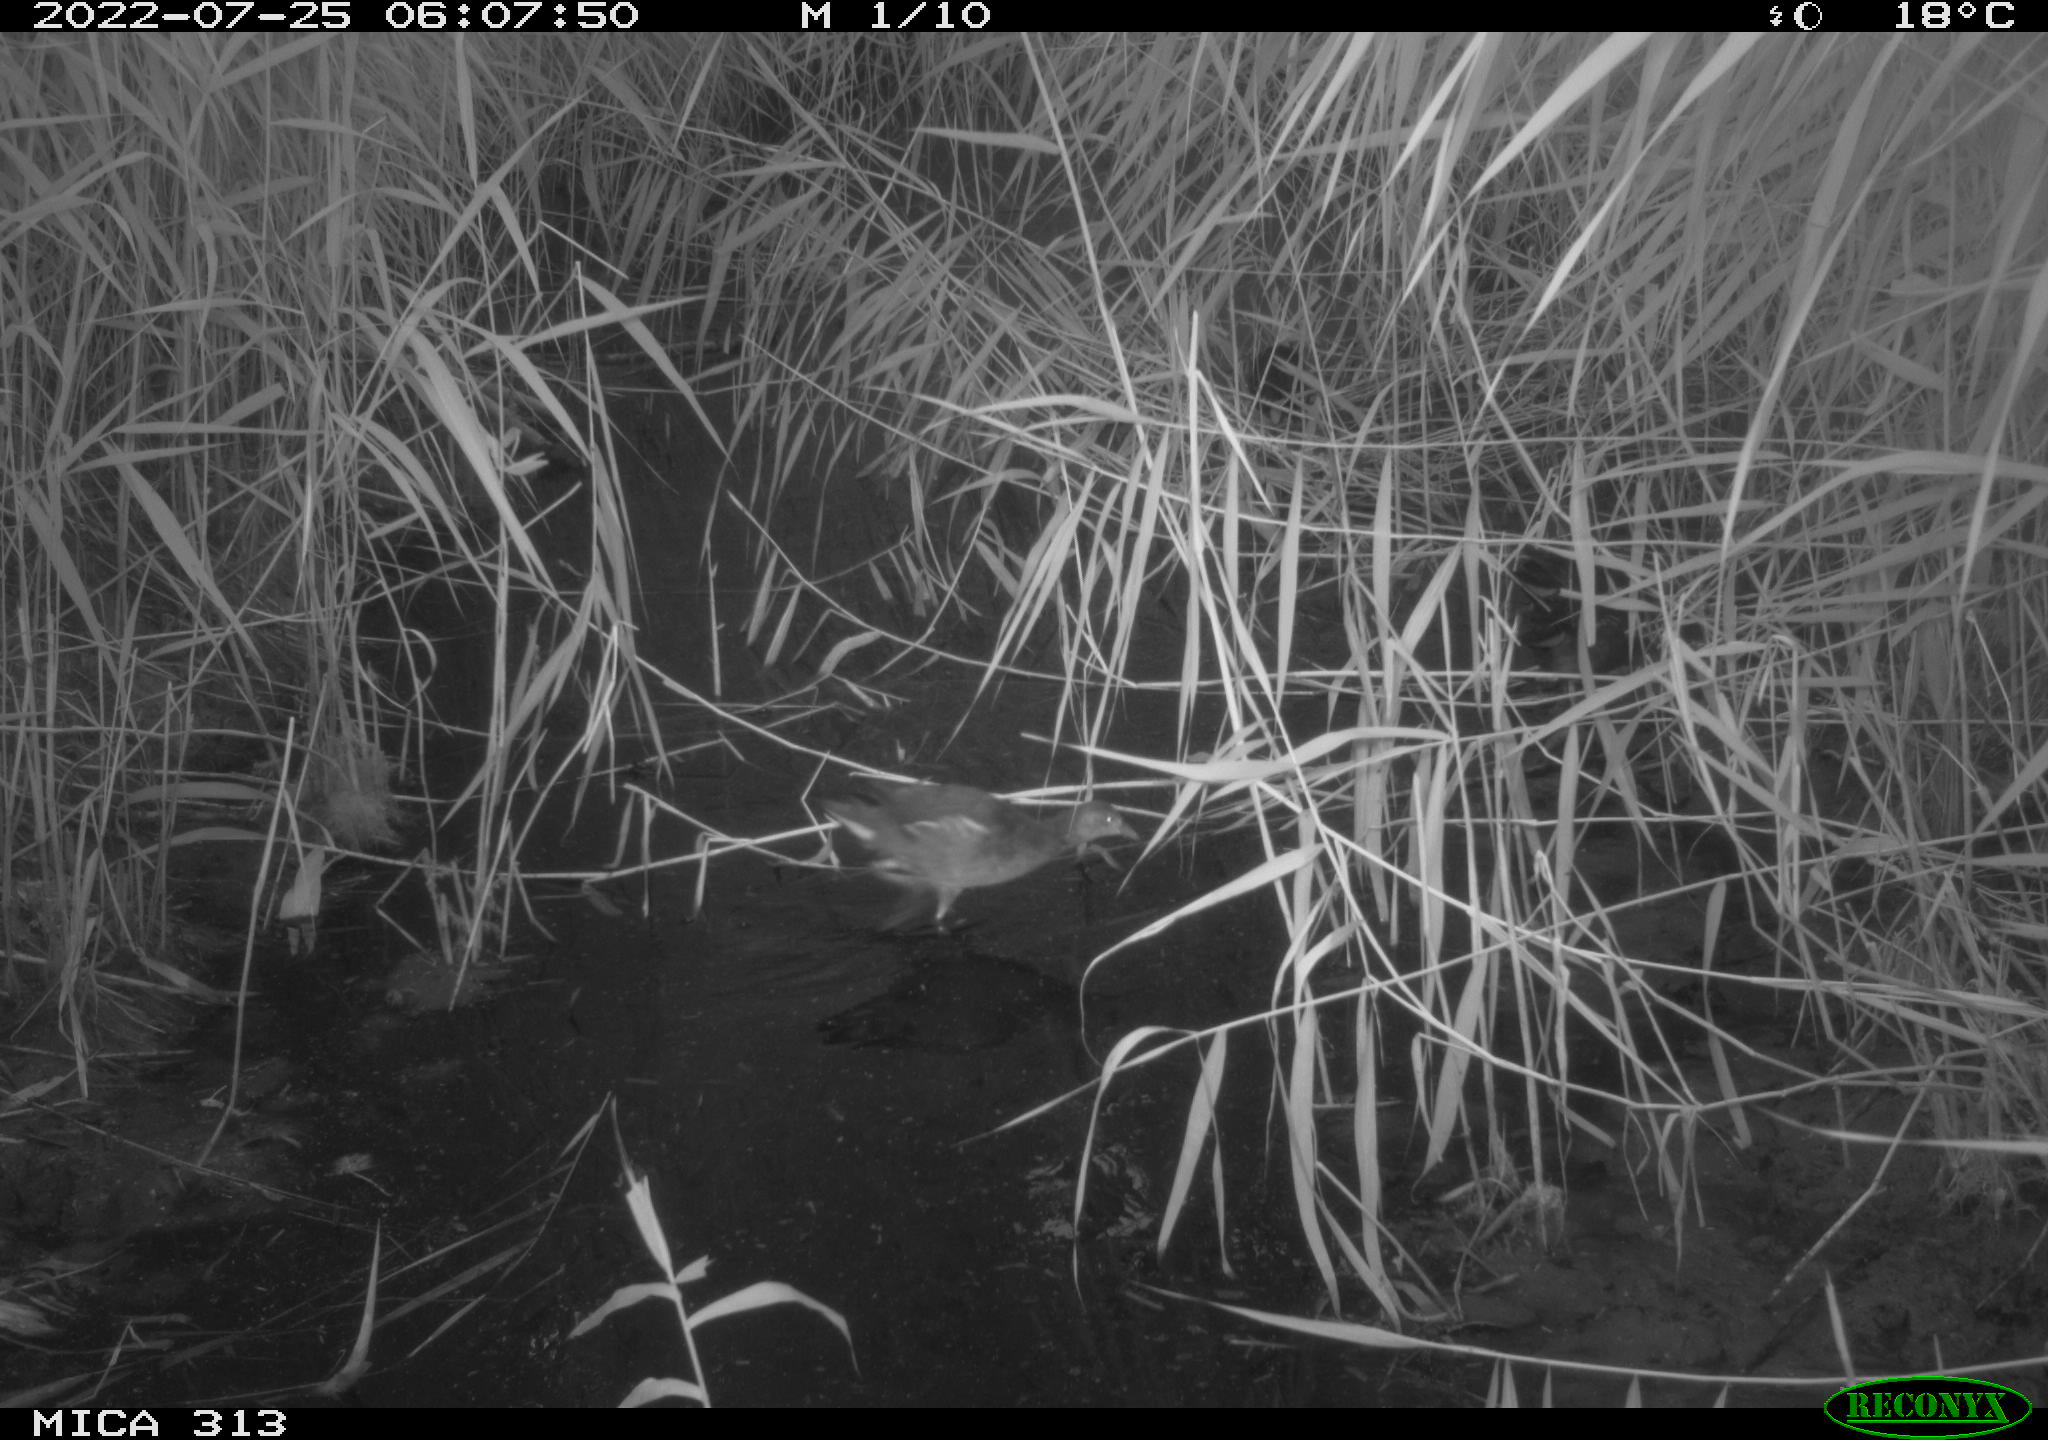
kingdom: Animalia
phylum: Chordata
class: Aves
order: Gruiformes
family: Rallidae
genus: Gallinula
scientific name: Gallinula chloropus
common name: Common moorhen
